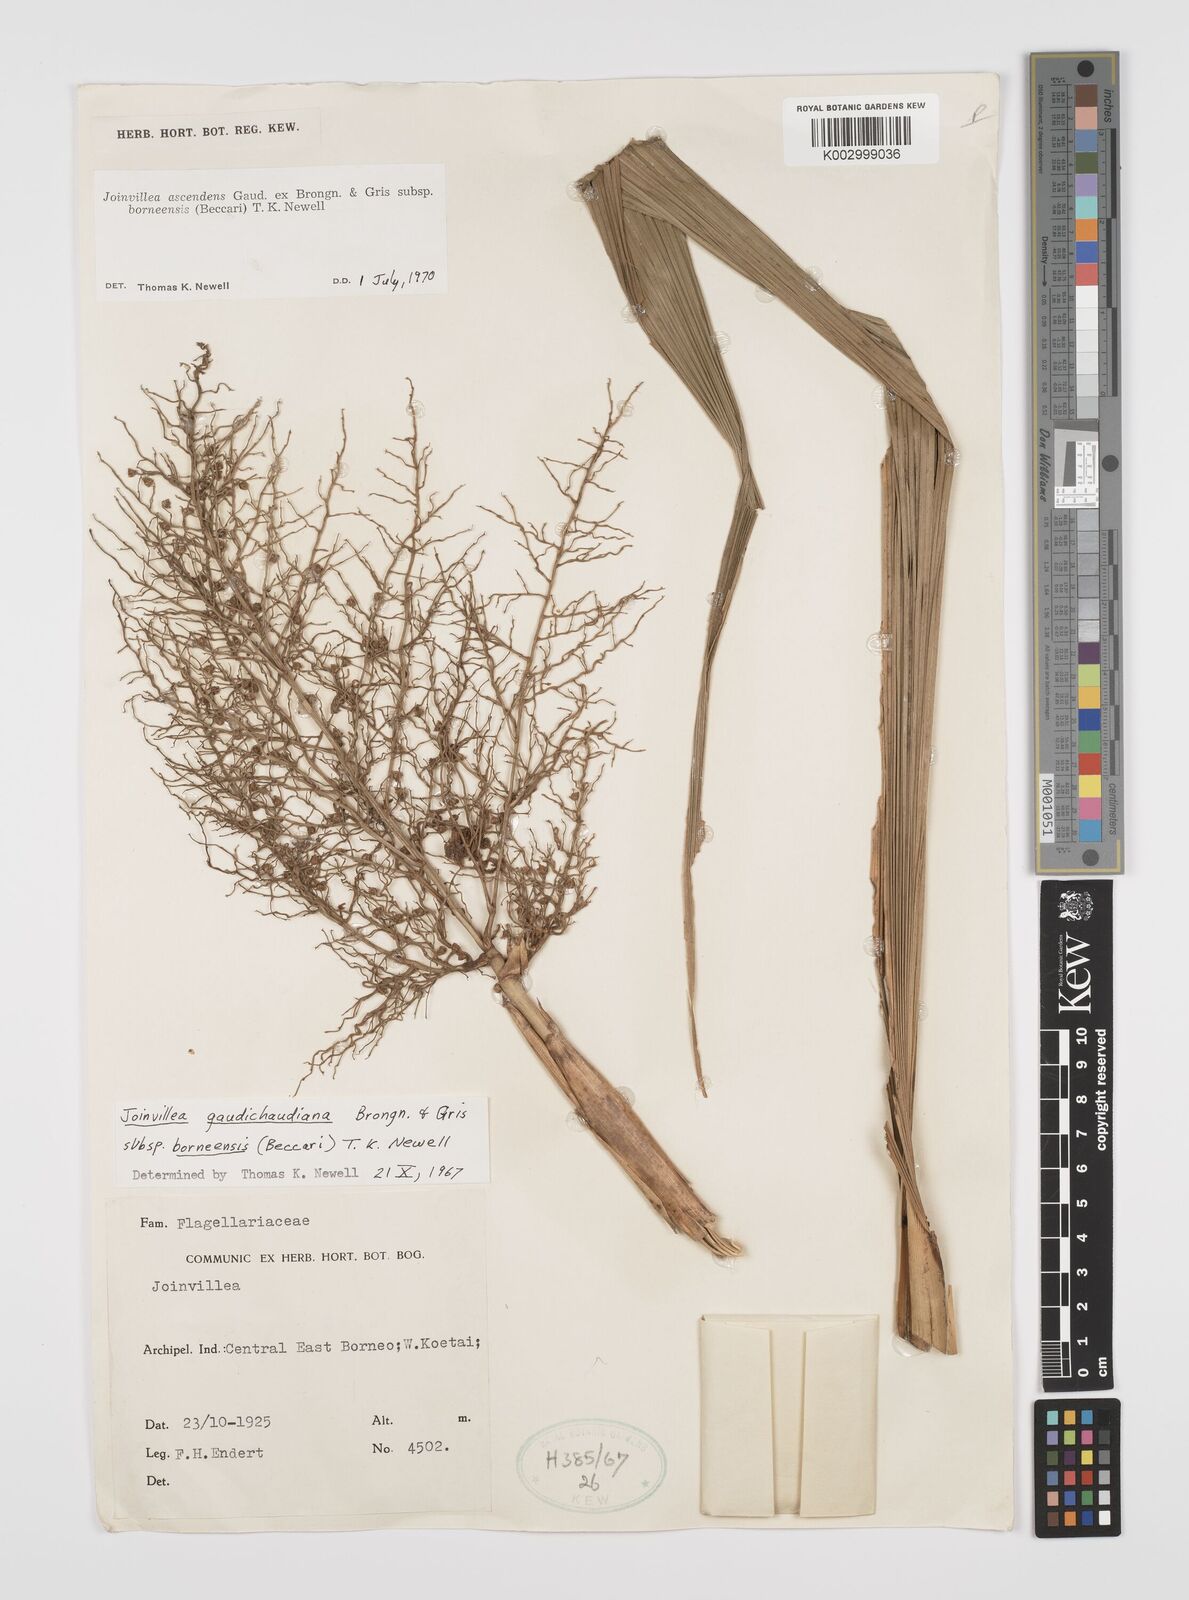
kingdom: Plantae
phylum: Tracheophyta
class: Liliopsida
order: Poales
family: Joinvilleaceae
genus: Joinvillea
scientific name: Joinvillea borneensis
